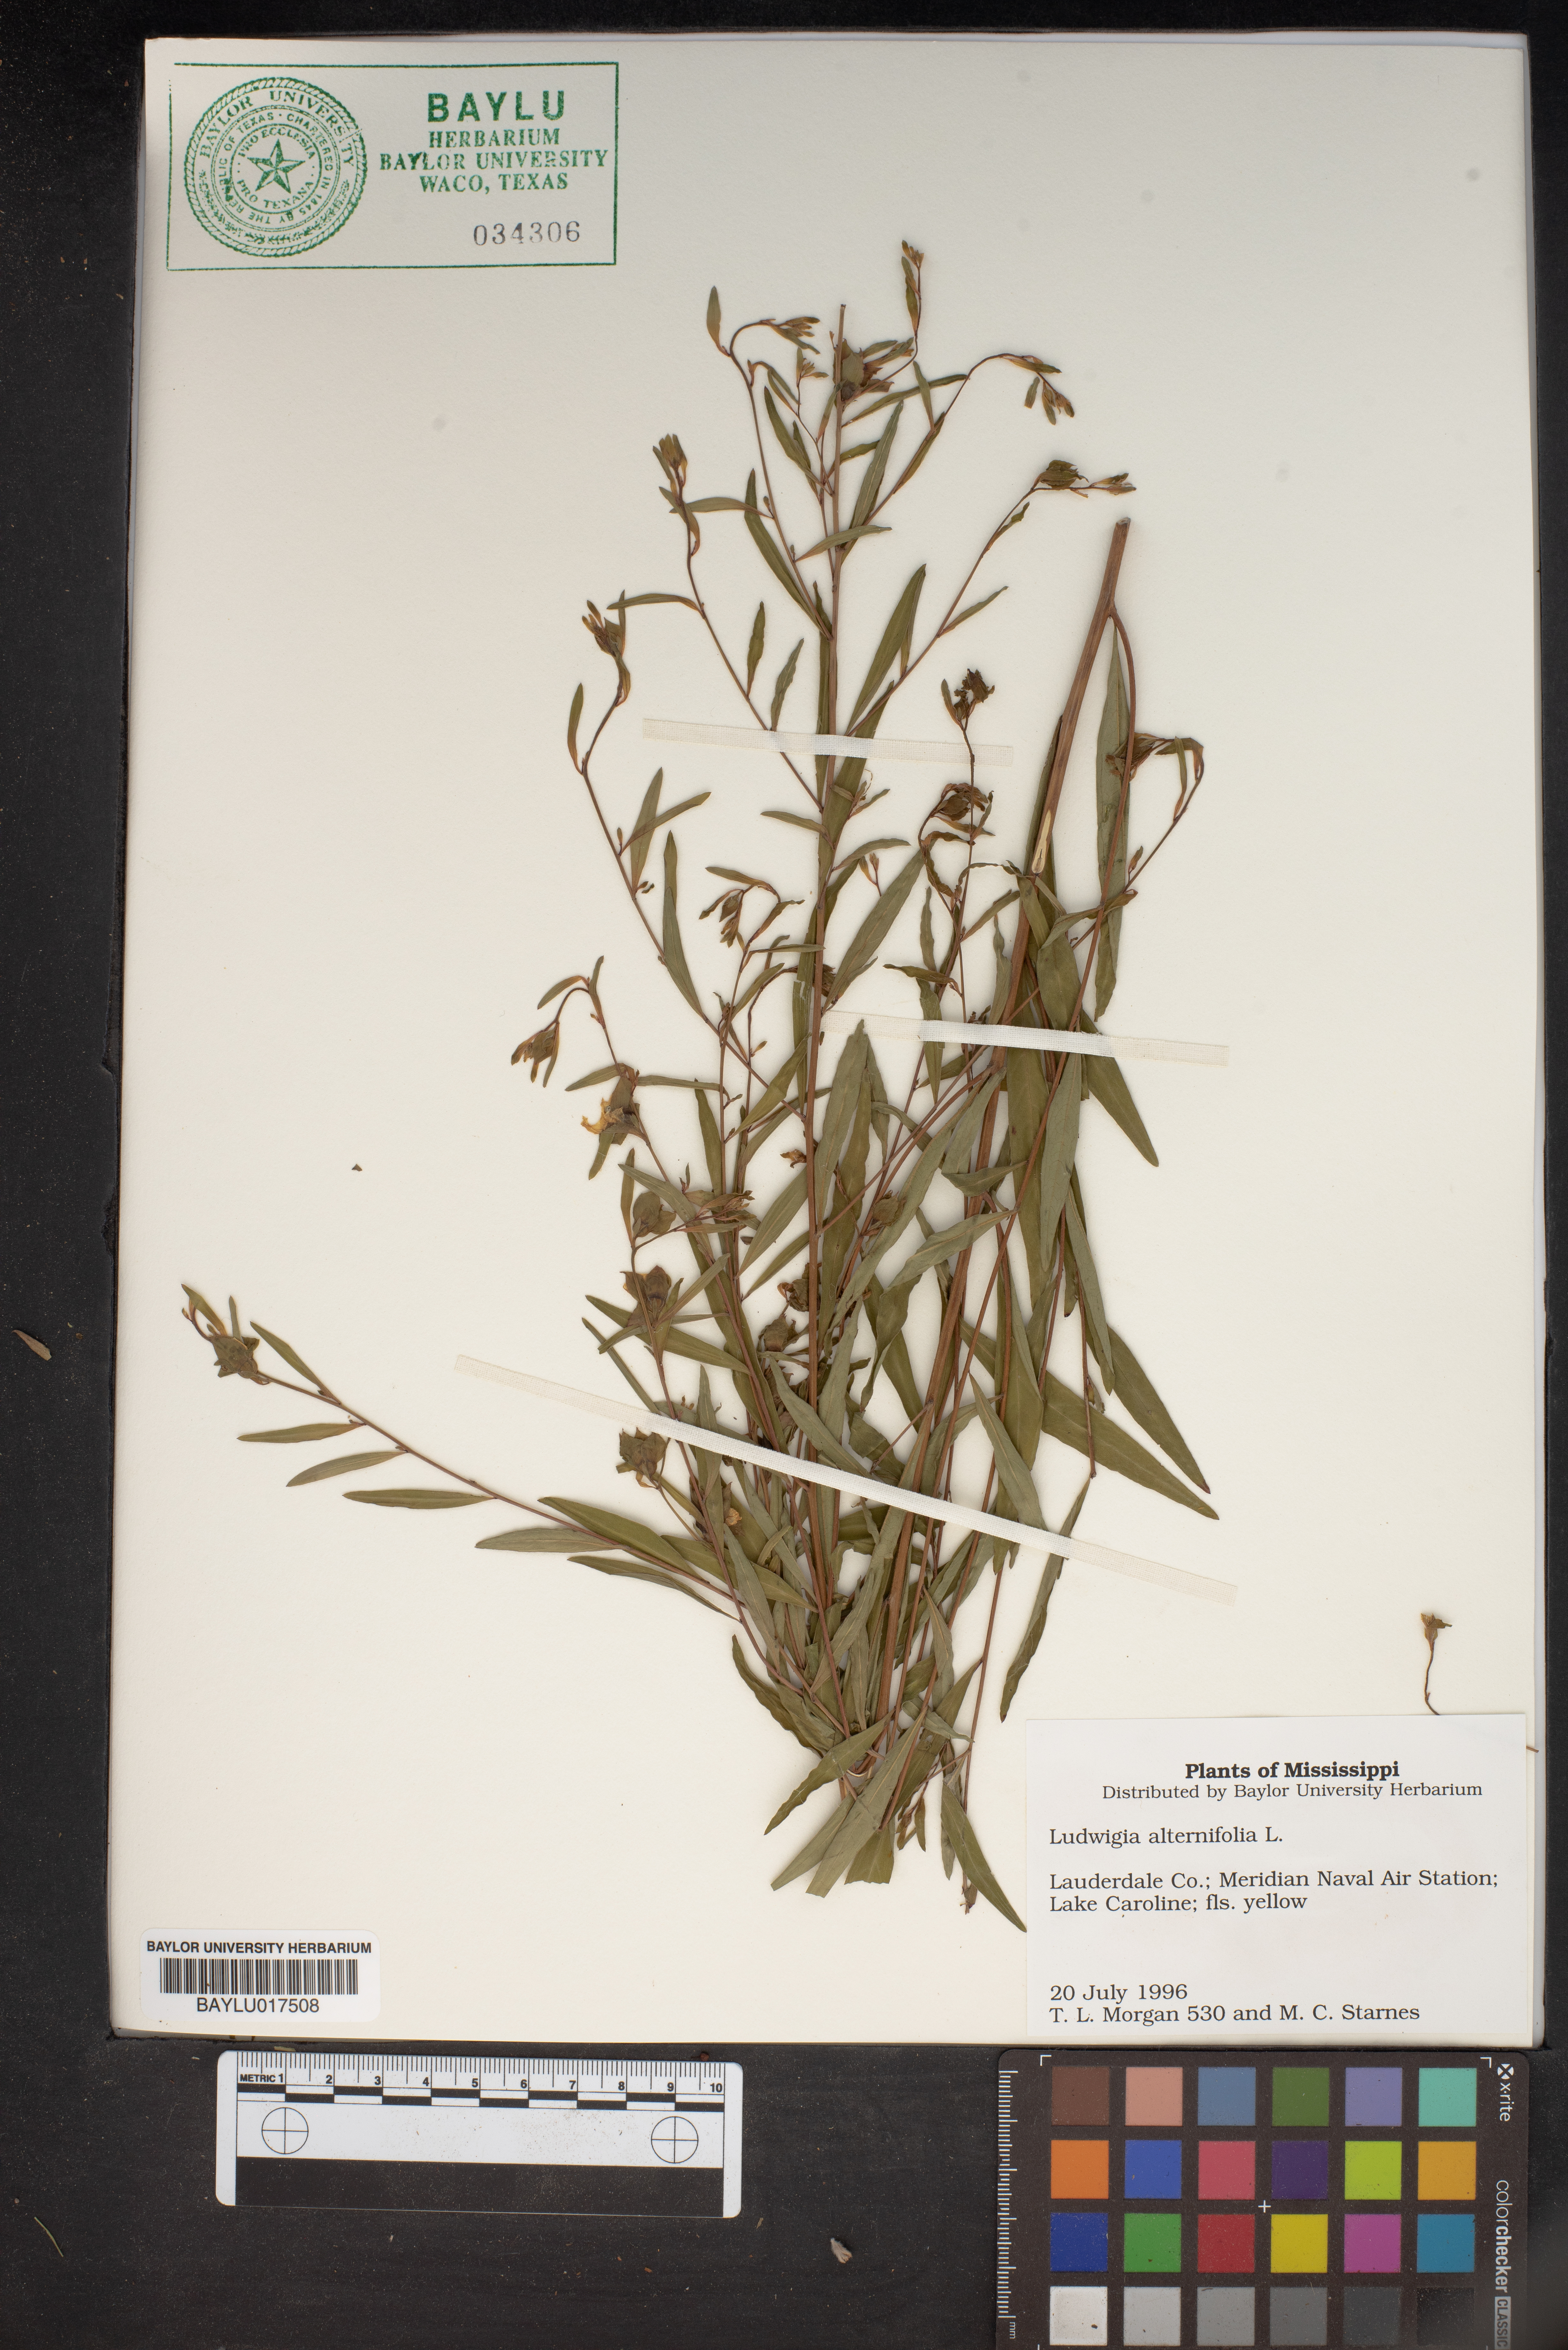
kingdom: Plantae
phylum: Tracheophyta
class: Magnoliopsida
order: Myrtales
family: Onagraceae
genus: Ludwigia
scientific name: Ludwigia alternifolia
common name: Rattlebox
